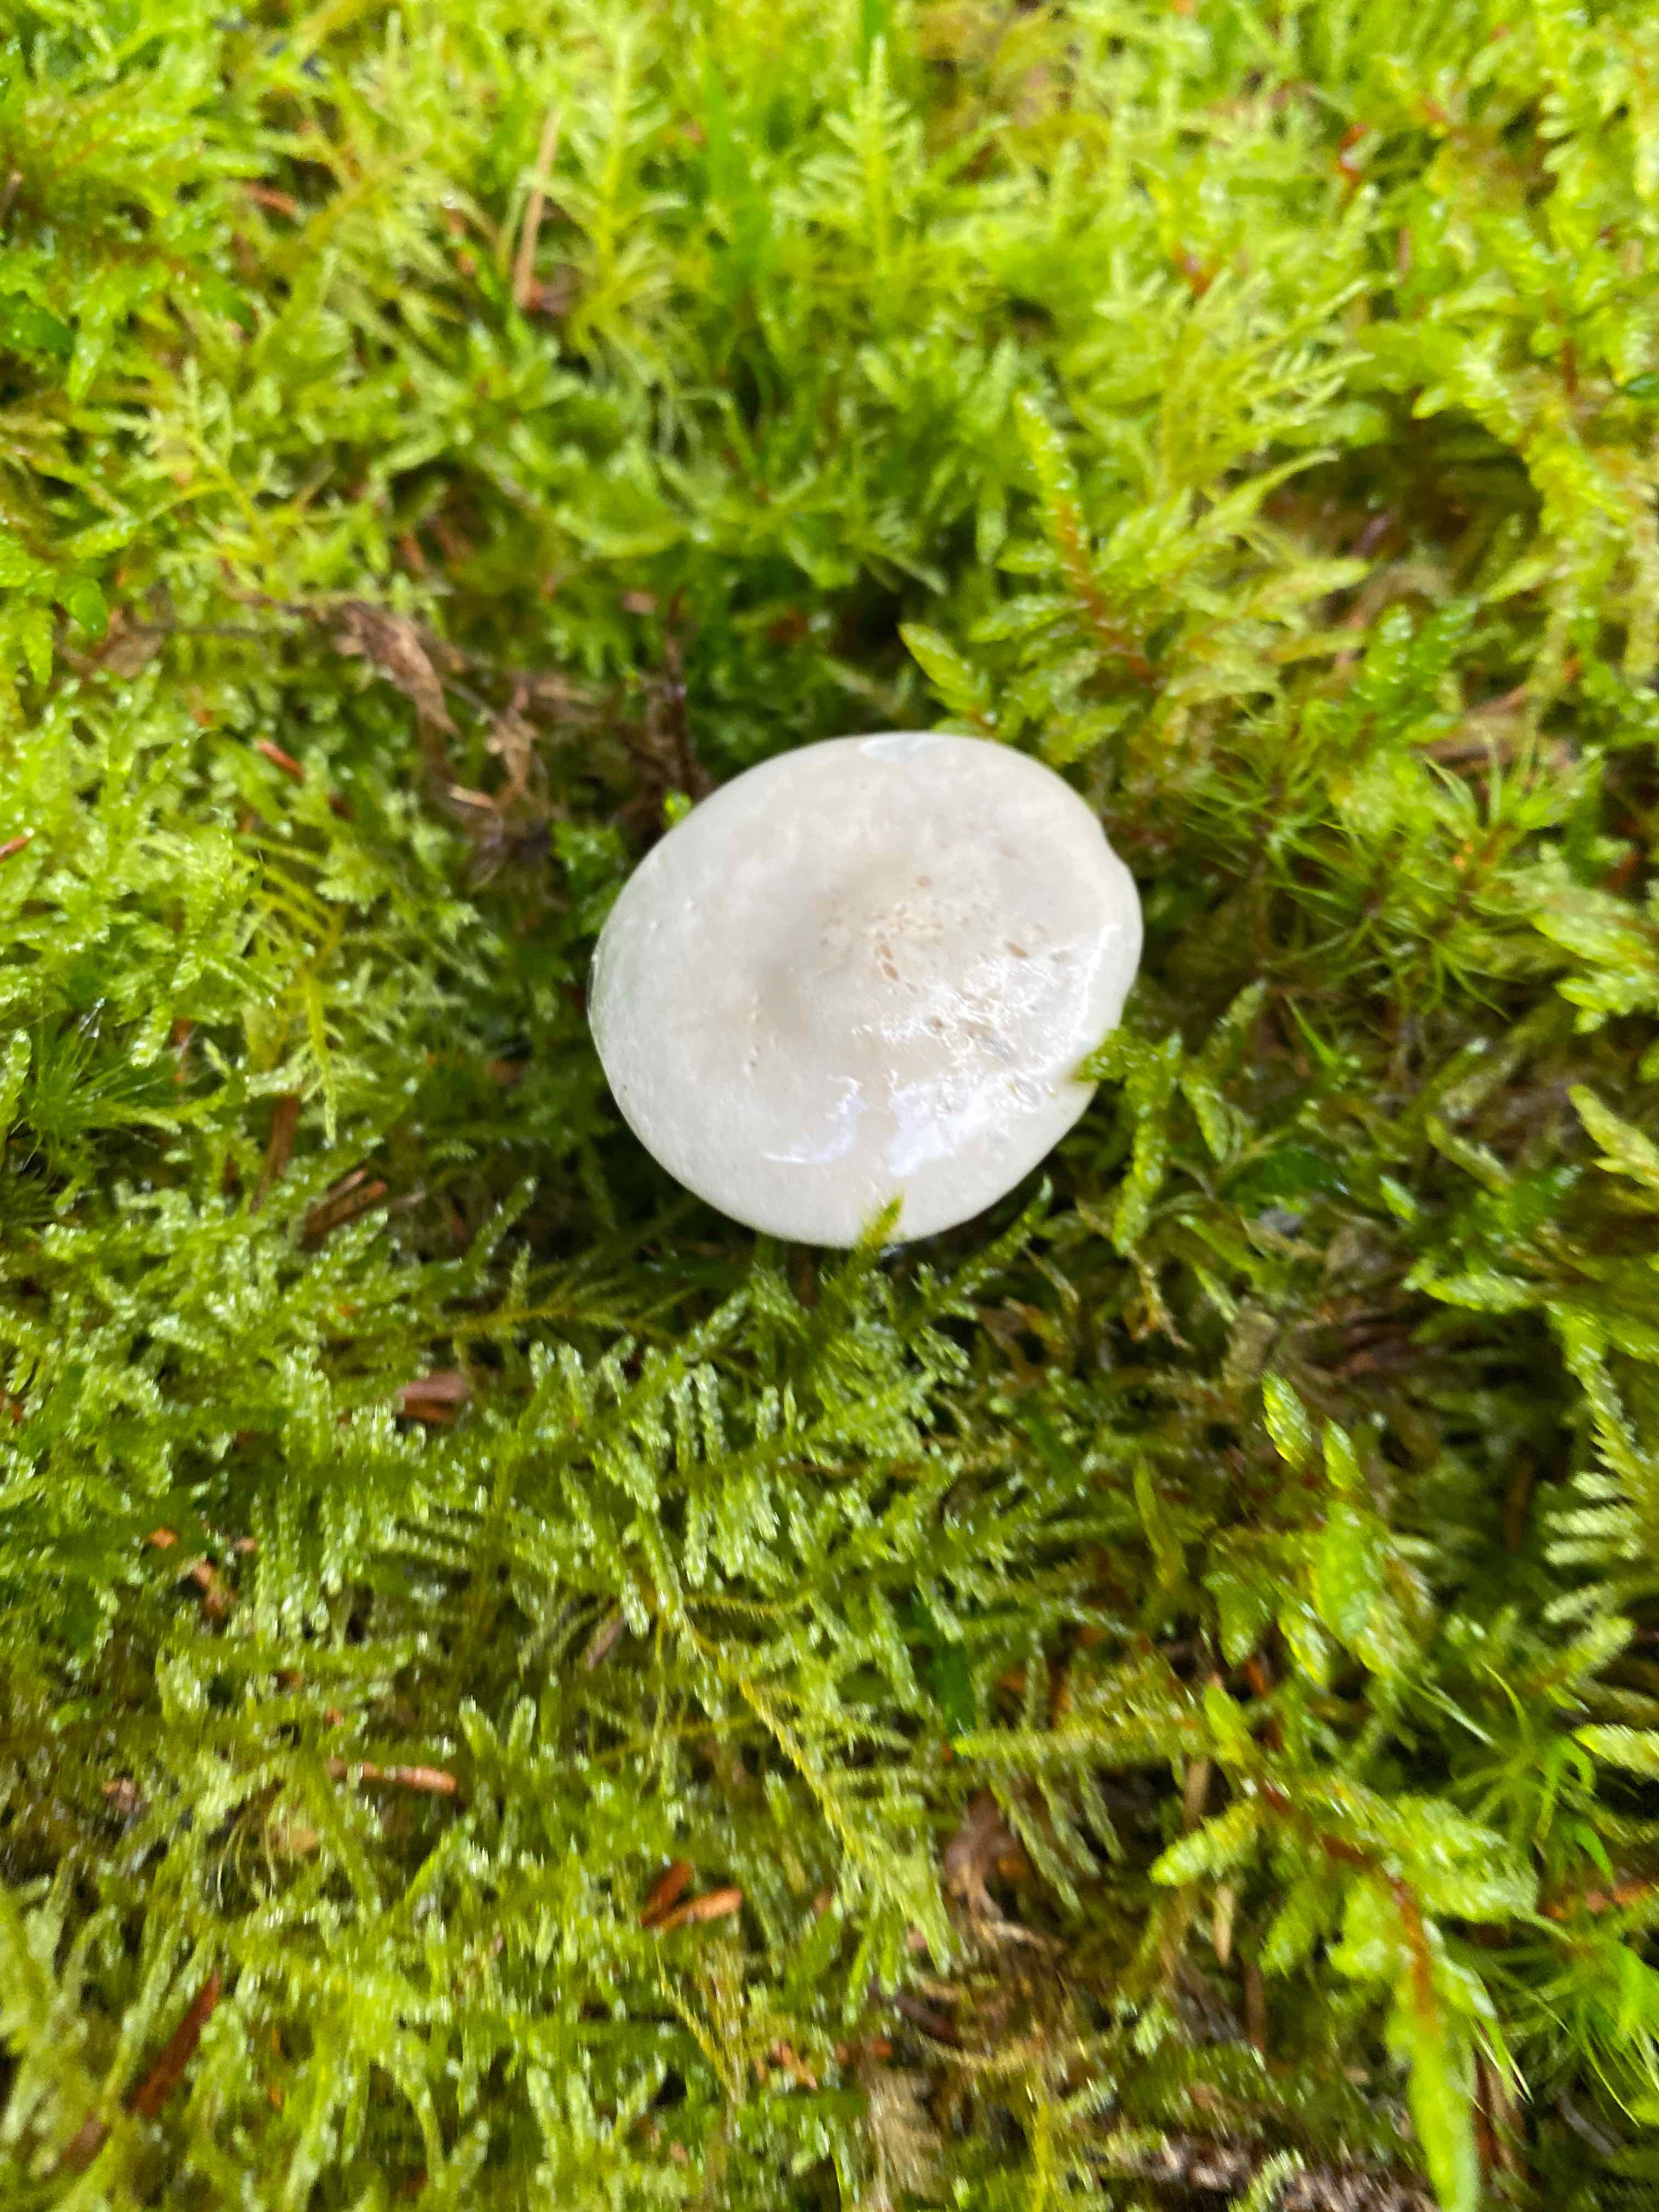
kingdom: Fungi
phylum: Basidiomycota
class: Agaricomycetes
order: Agaricales
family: Entolomataceae
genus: Clitopilus
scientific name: Clitopilus prunulus
